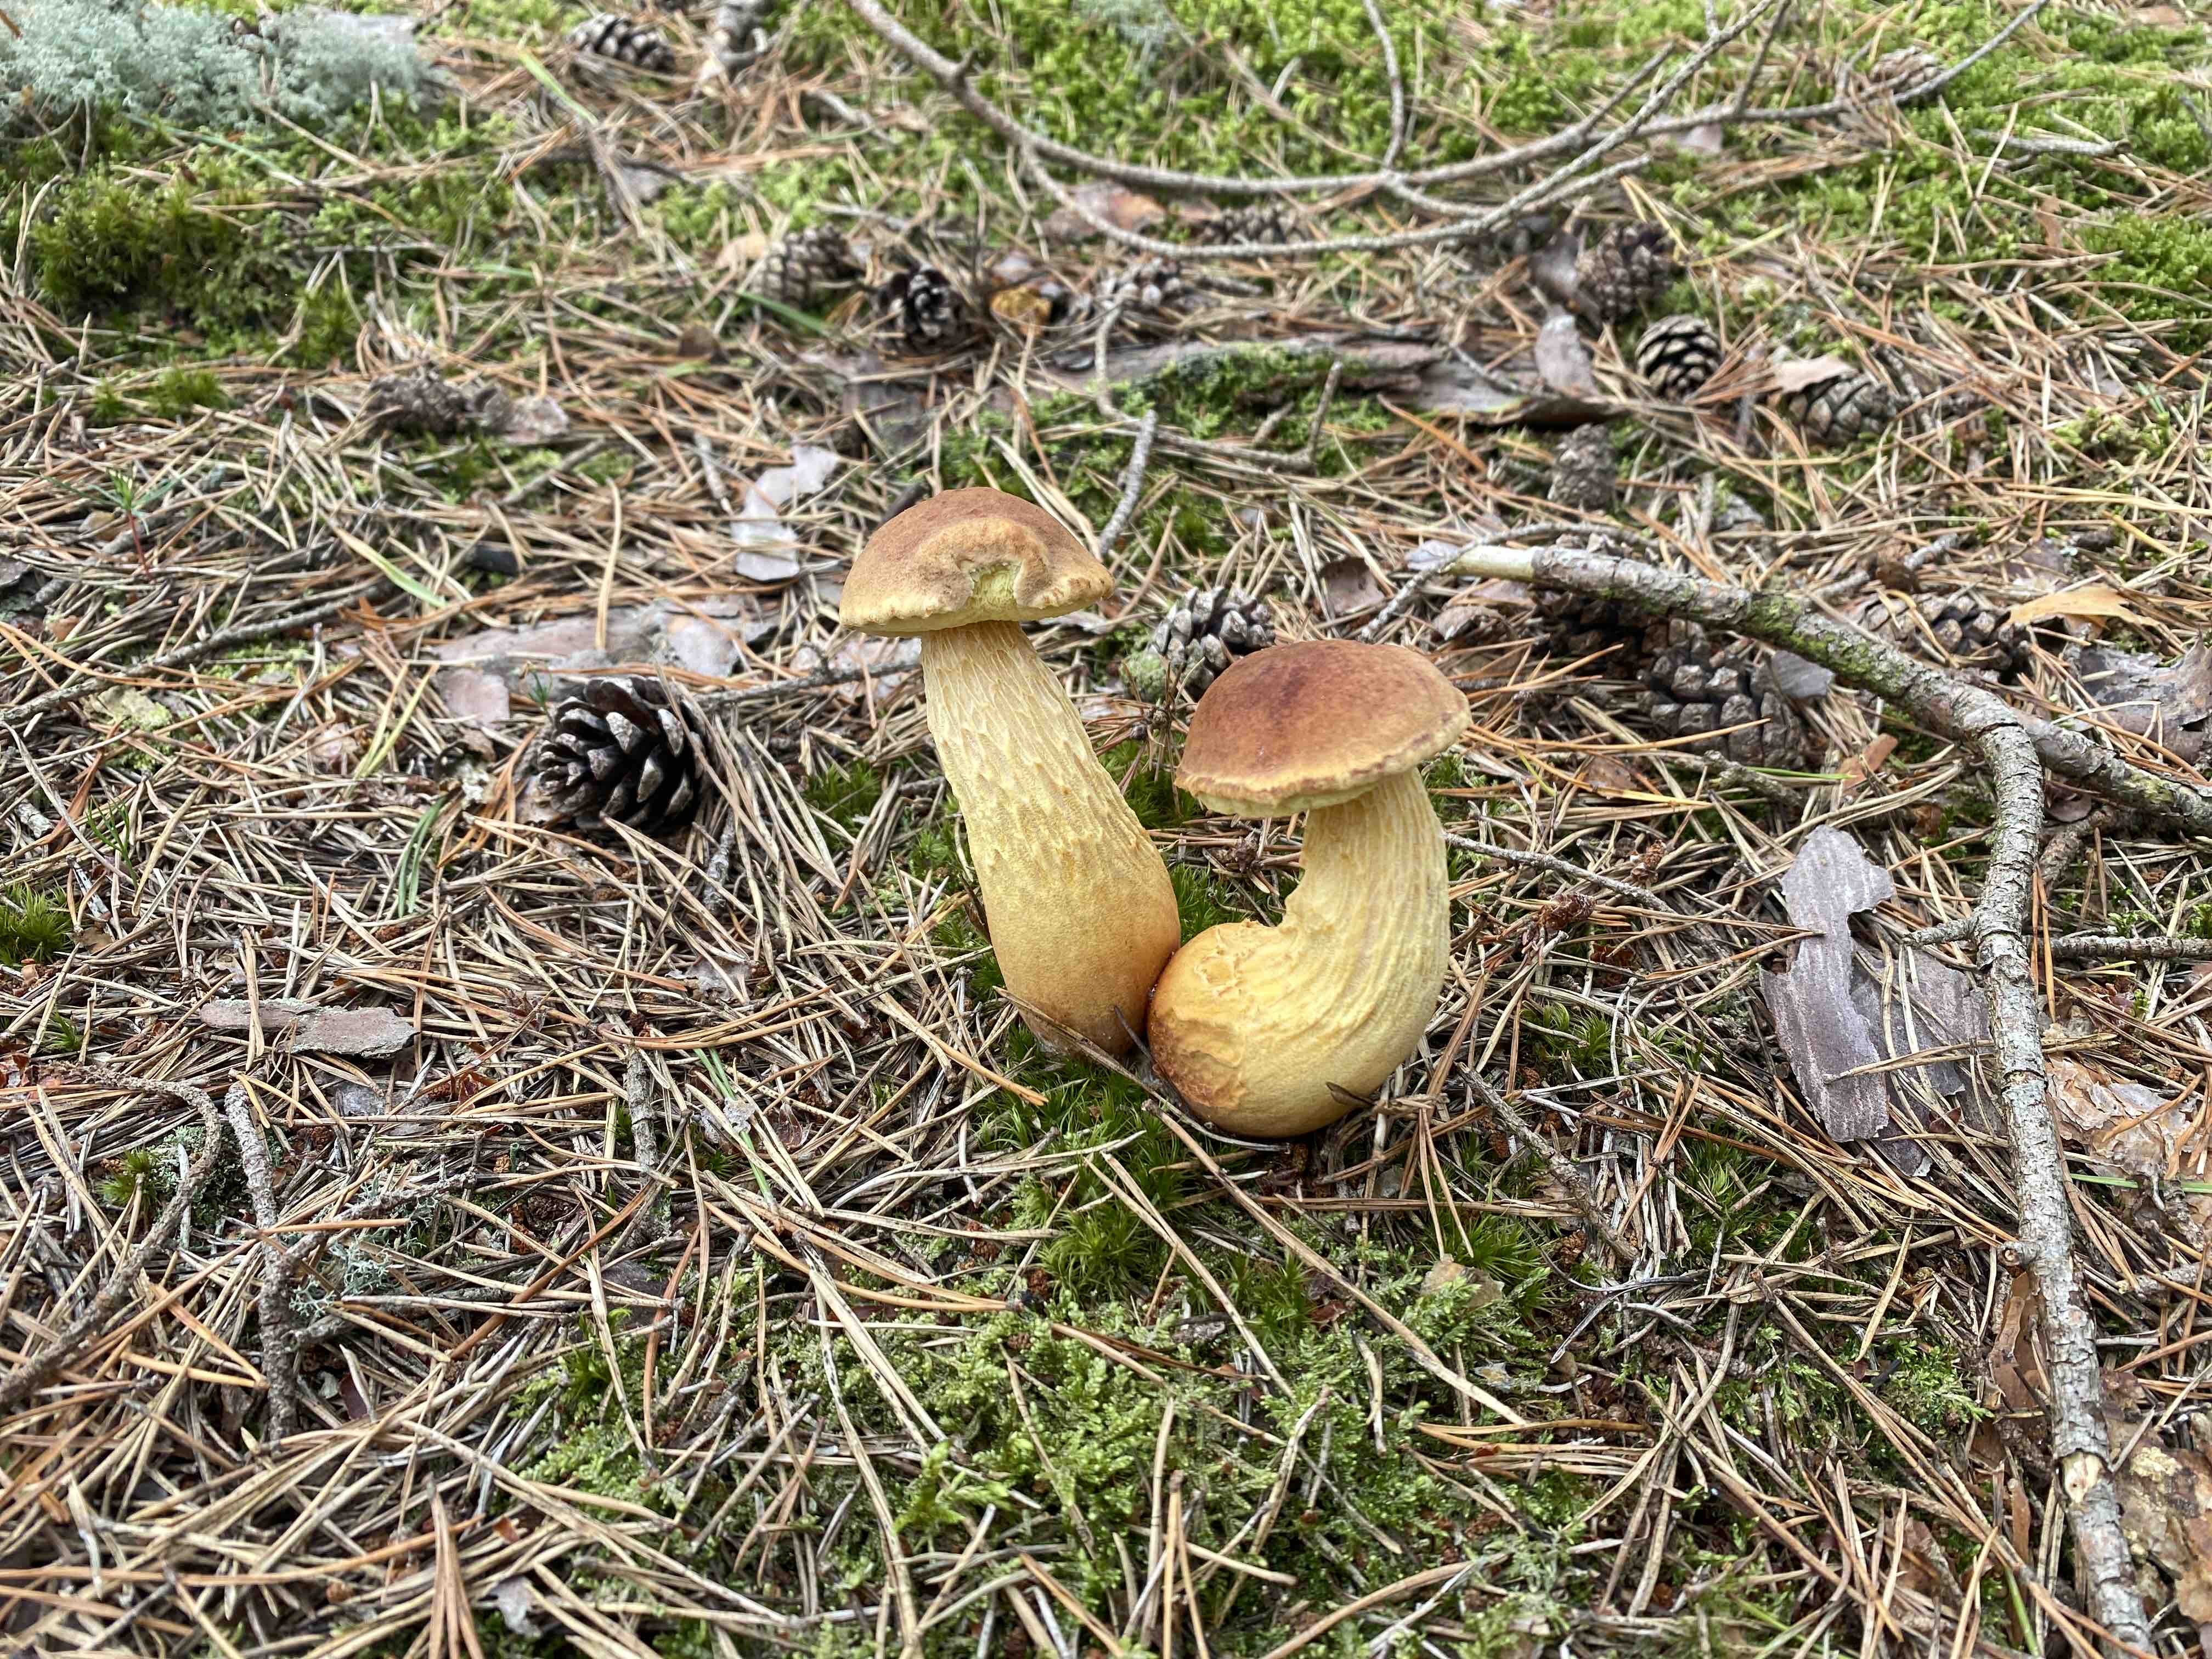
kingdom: Fungi
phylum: Basidiomycota
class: Agaricomycetes
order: Boletales
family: Boletaceae
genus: Aureoboletus
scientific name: Aureoboletus projectellus
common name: ribbestokket rørhat
